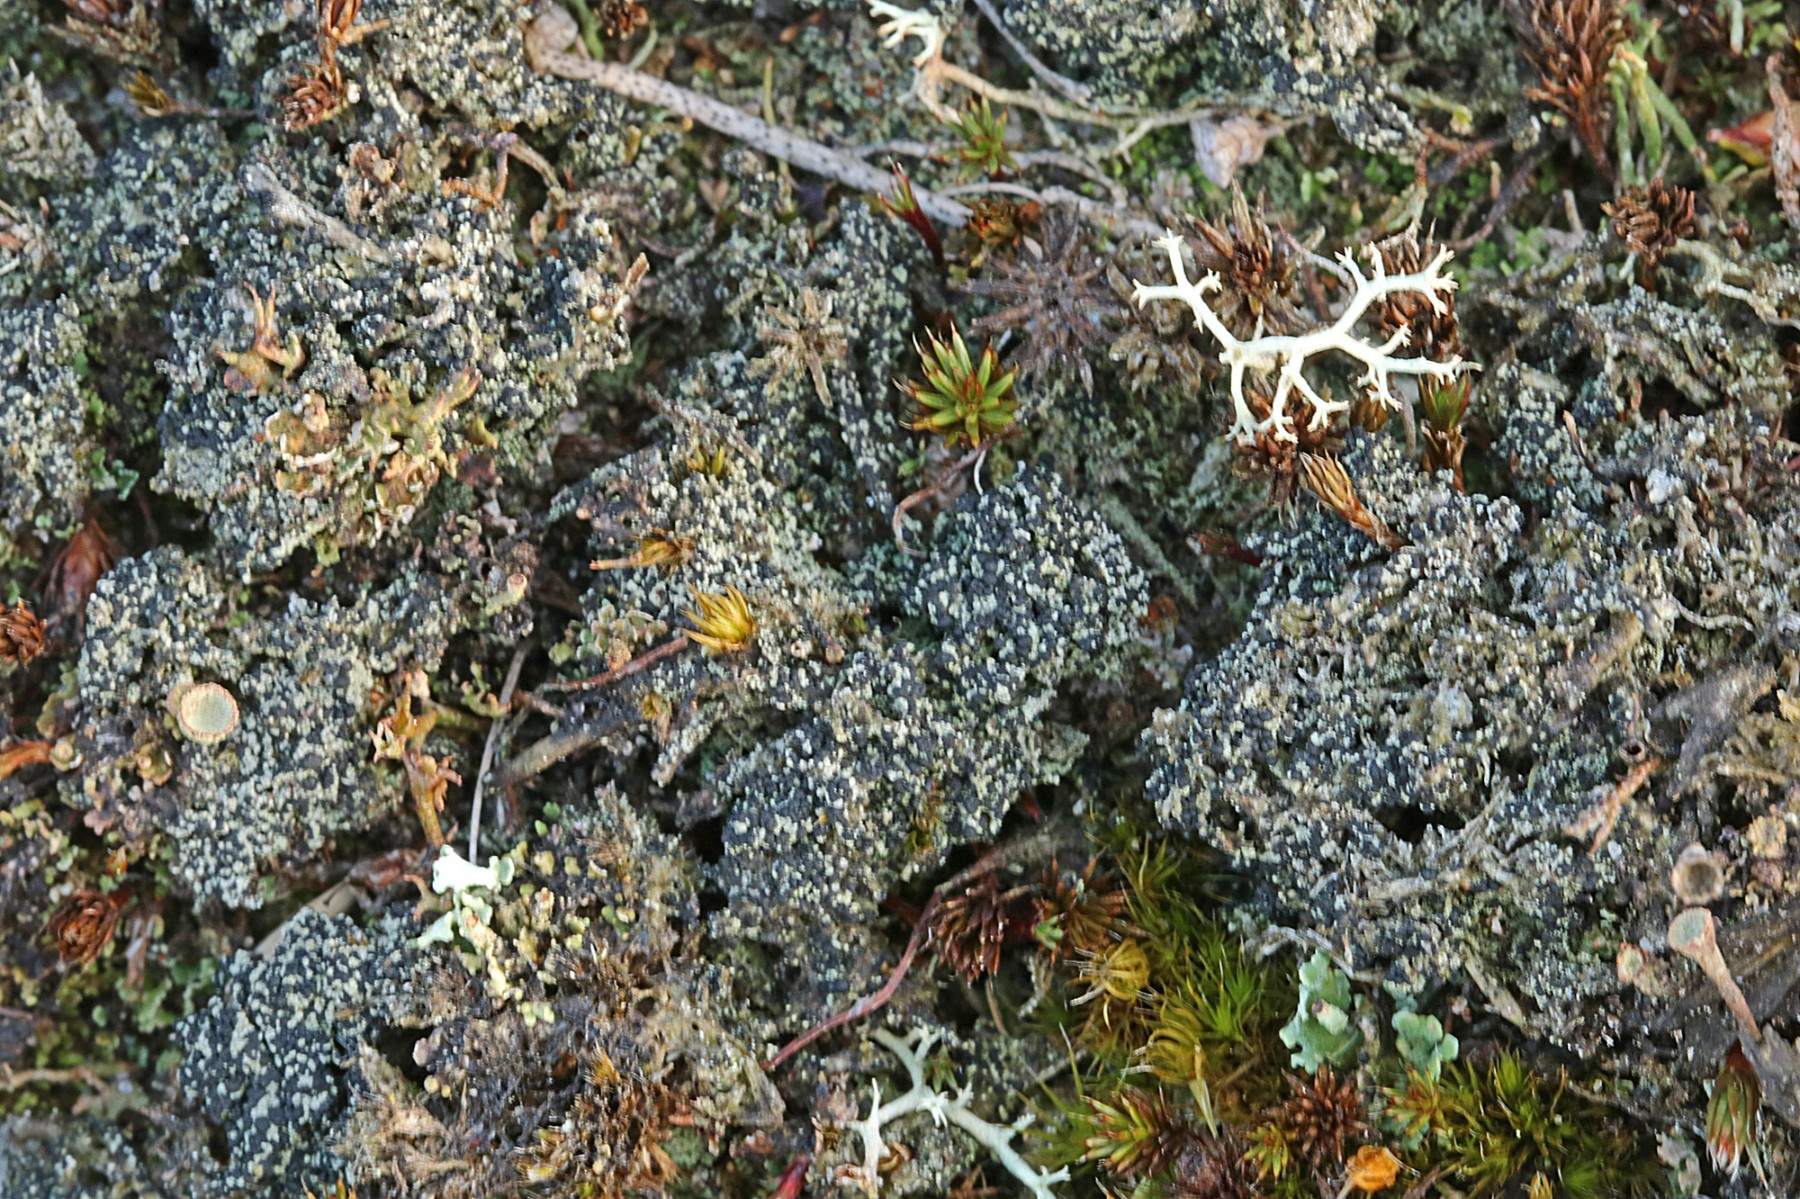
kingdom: Fungi
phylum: Ascomycota
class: Lecanoromycetes
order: Lecanorales
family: Byssolomataceae
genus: Micarea
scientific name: Micarea lignaria
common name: tørve-knaplav
